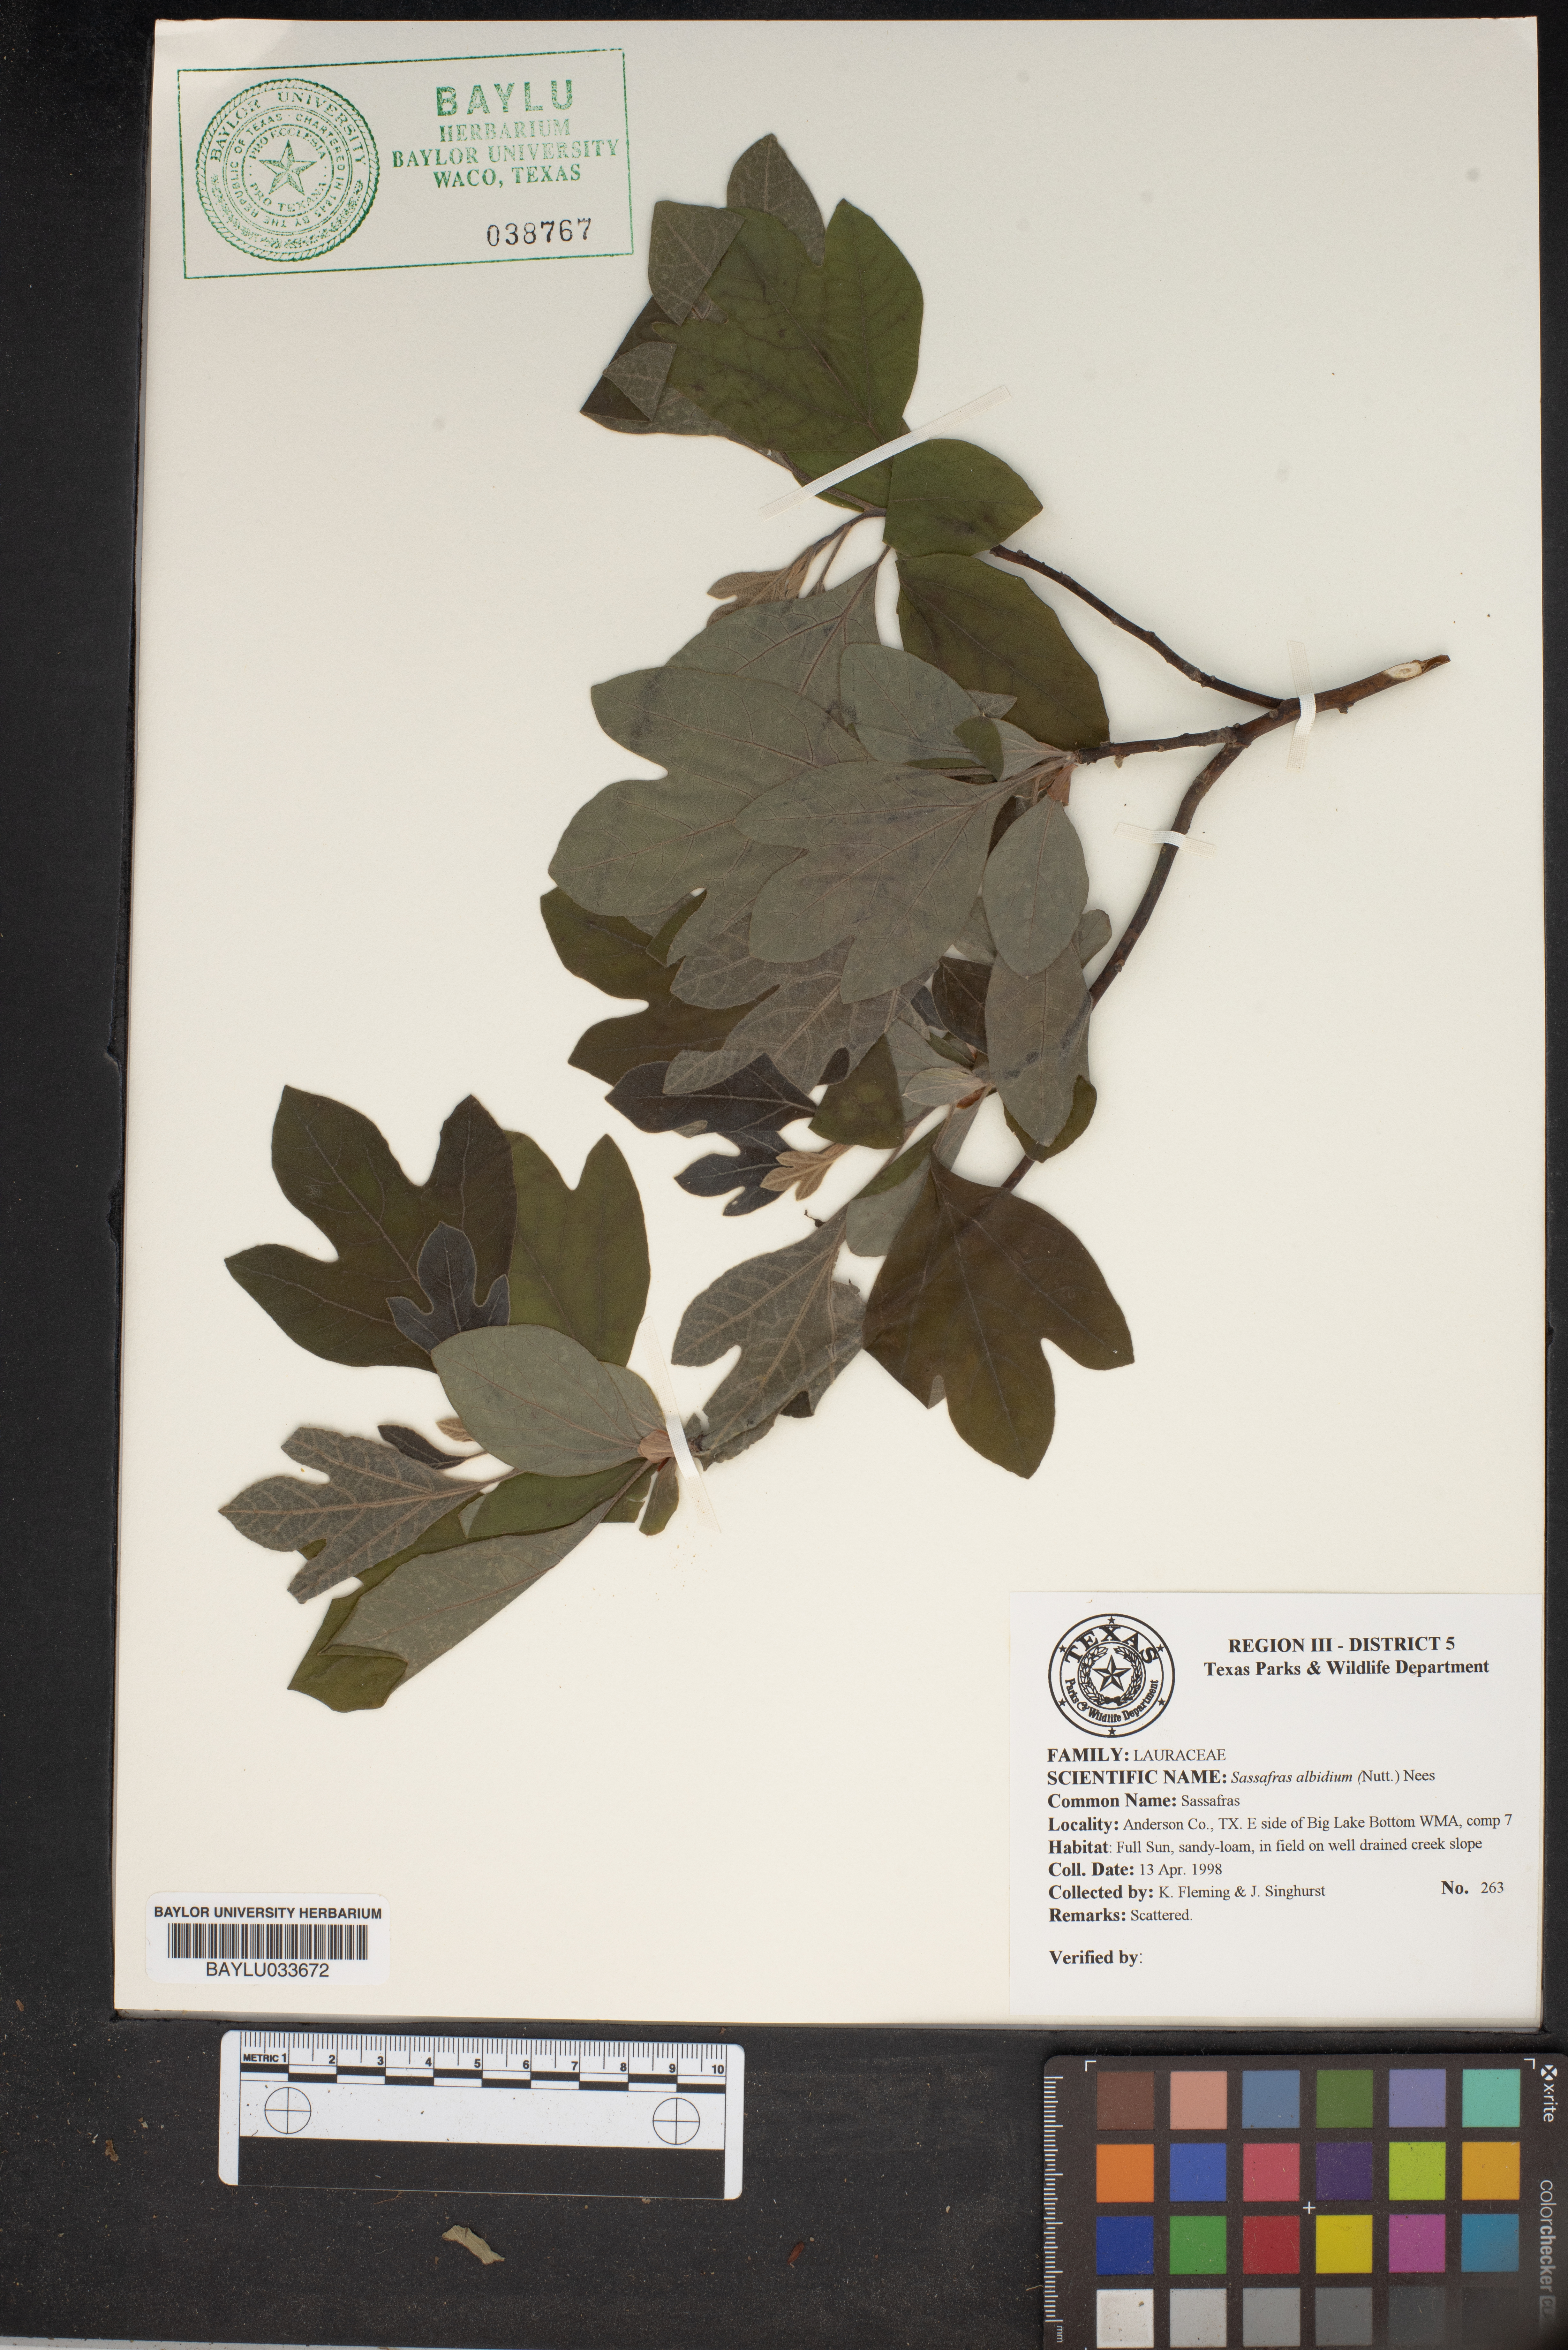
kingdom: Plantae
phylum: Tracheophyta
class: Magnoliopsida
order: Laurales
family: Lauraceae
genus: Sassafras
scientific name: Sassafras albidum
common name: Sassafras
